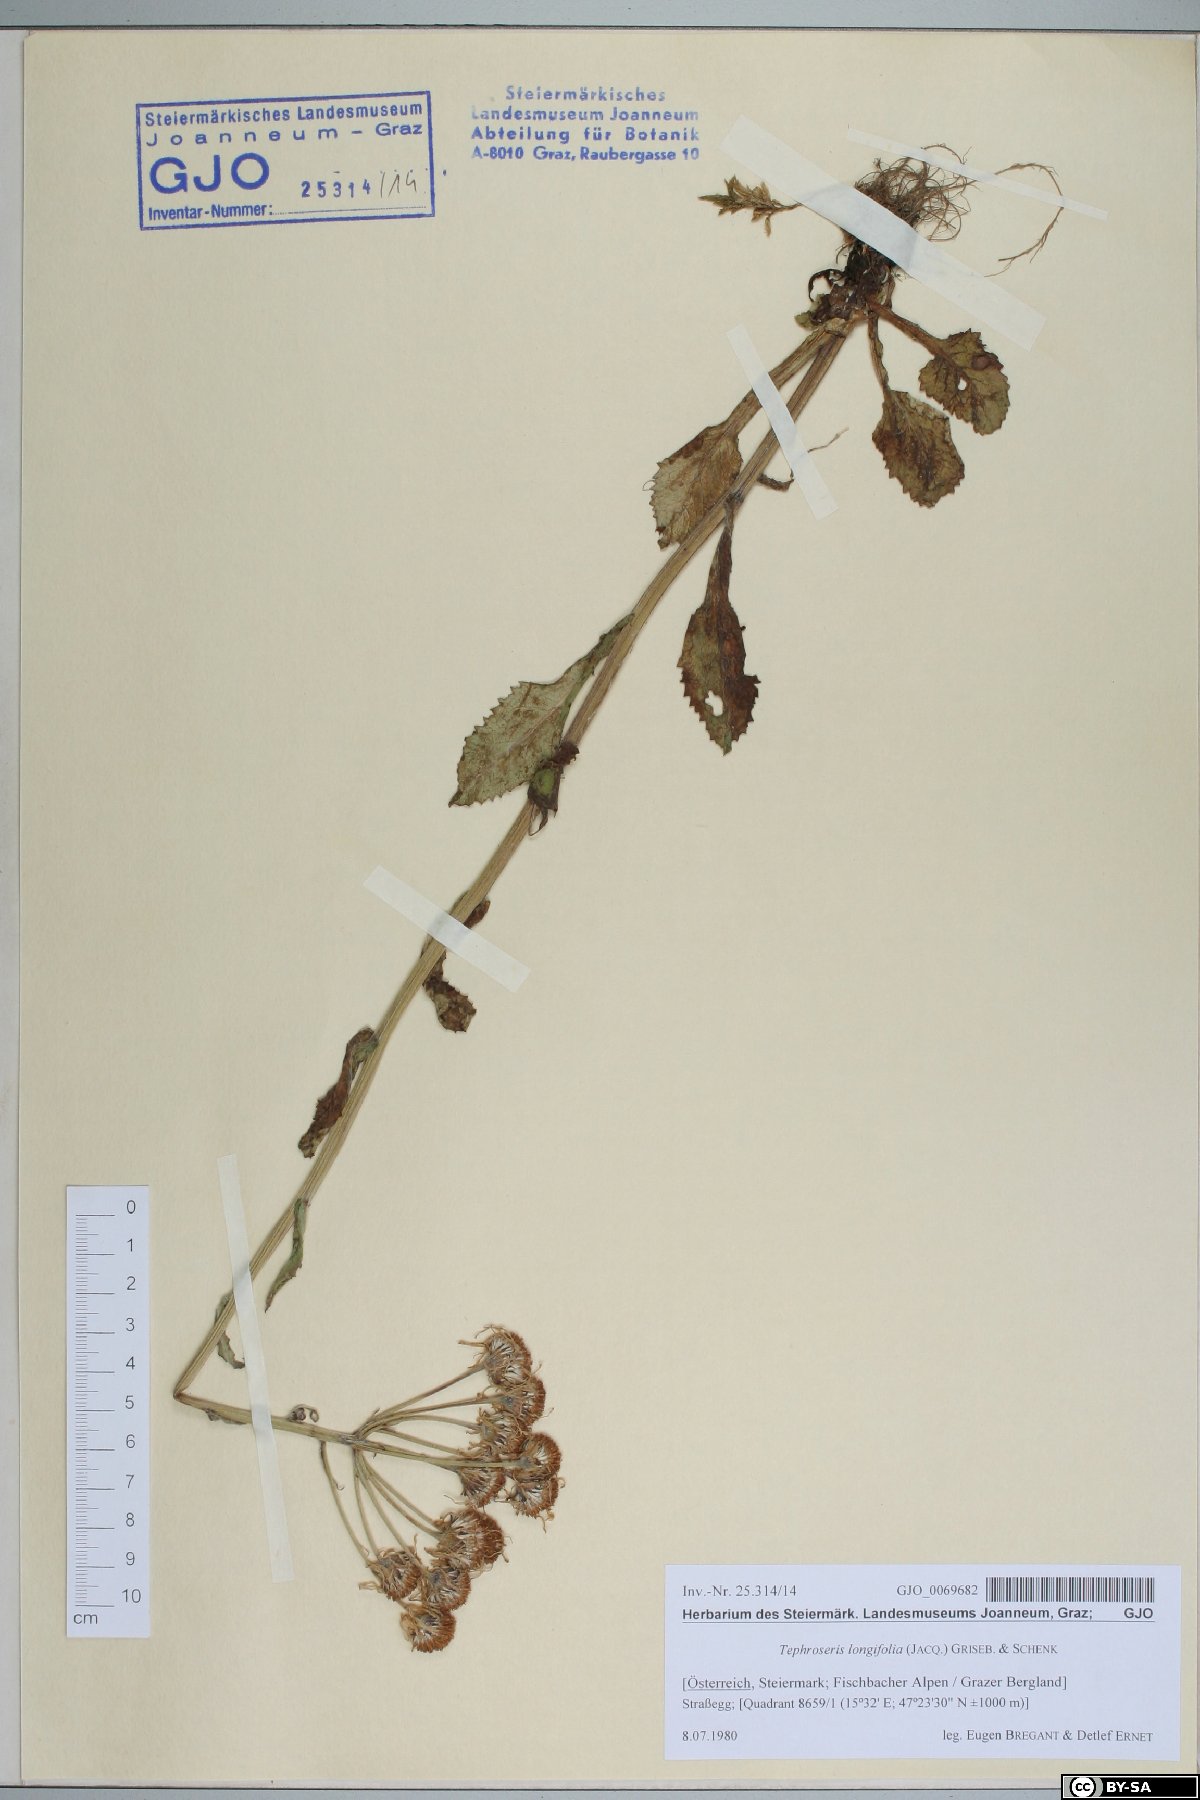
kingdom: Plantae
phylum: Tracheophyta
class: Magnoliopsida
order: Asterales
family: Asteraceae
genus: Tephroseris
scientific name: Tephroseris longifolia
